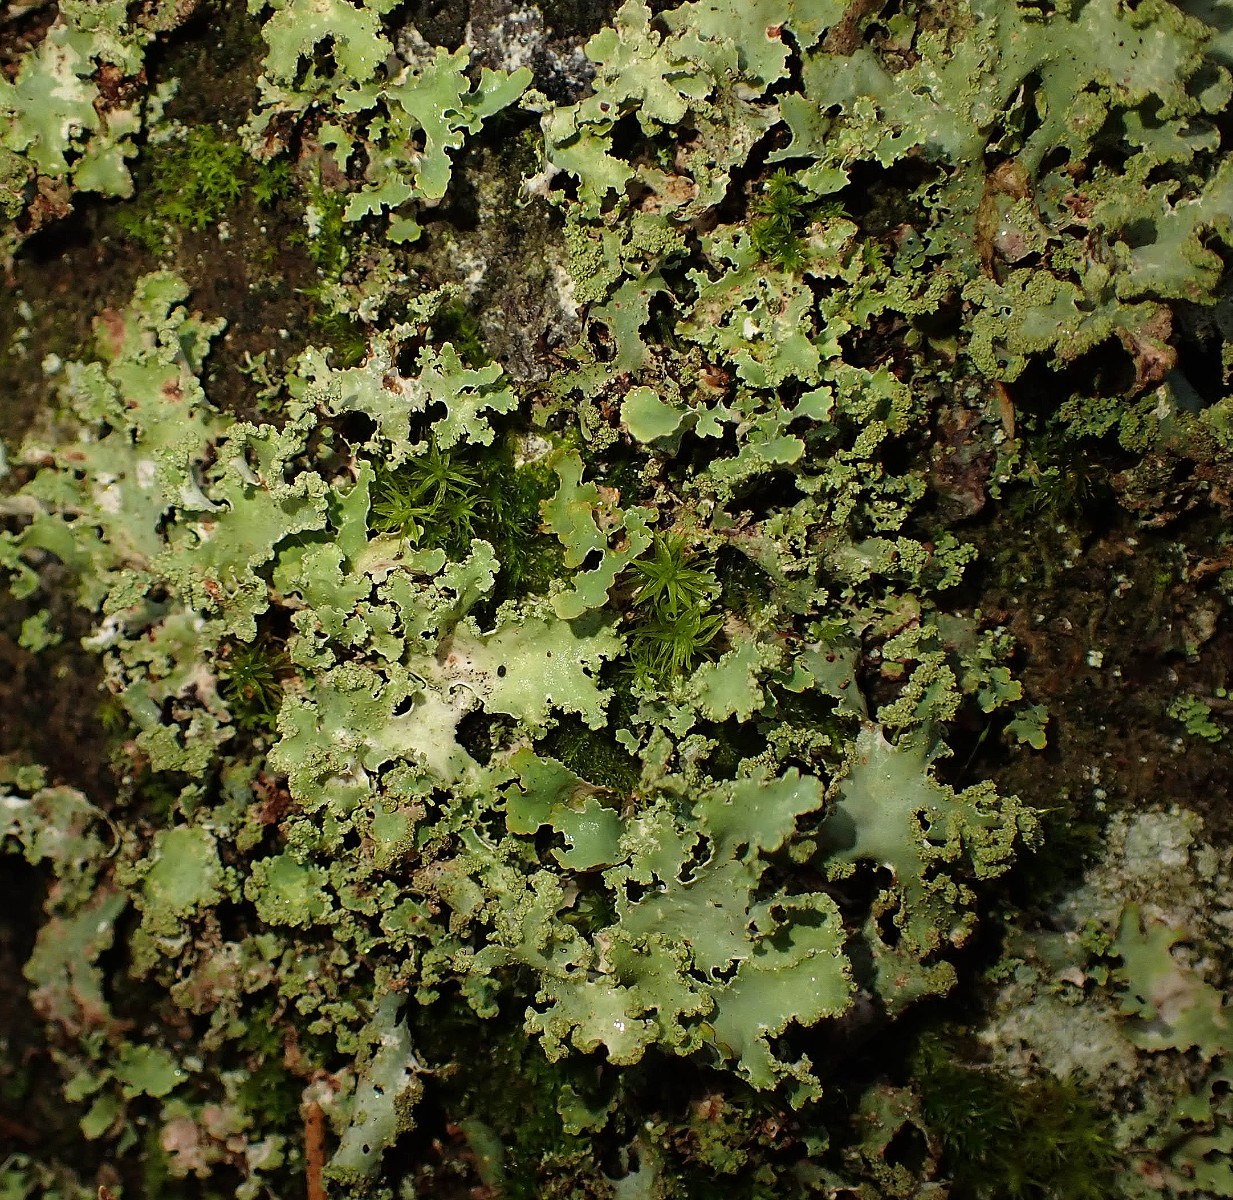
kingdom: Fungi
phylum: Ascomycota
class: Lecanoromycetes
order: Lecanorales
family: Parmeliaceae
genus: Platismatia
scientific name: Platismatia glauca
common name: blågrå papirlav
